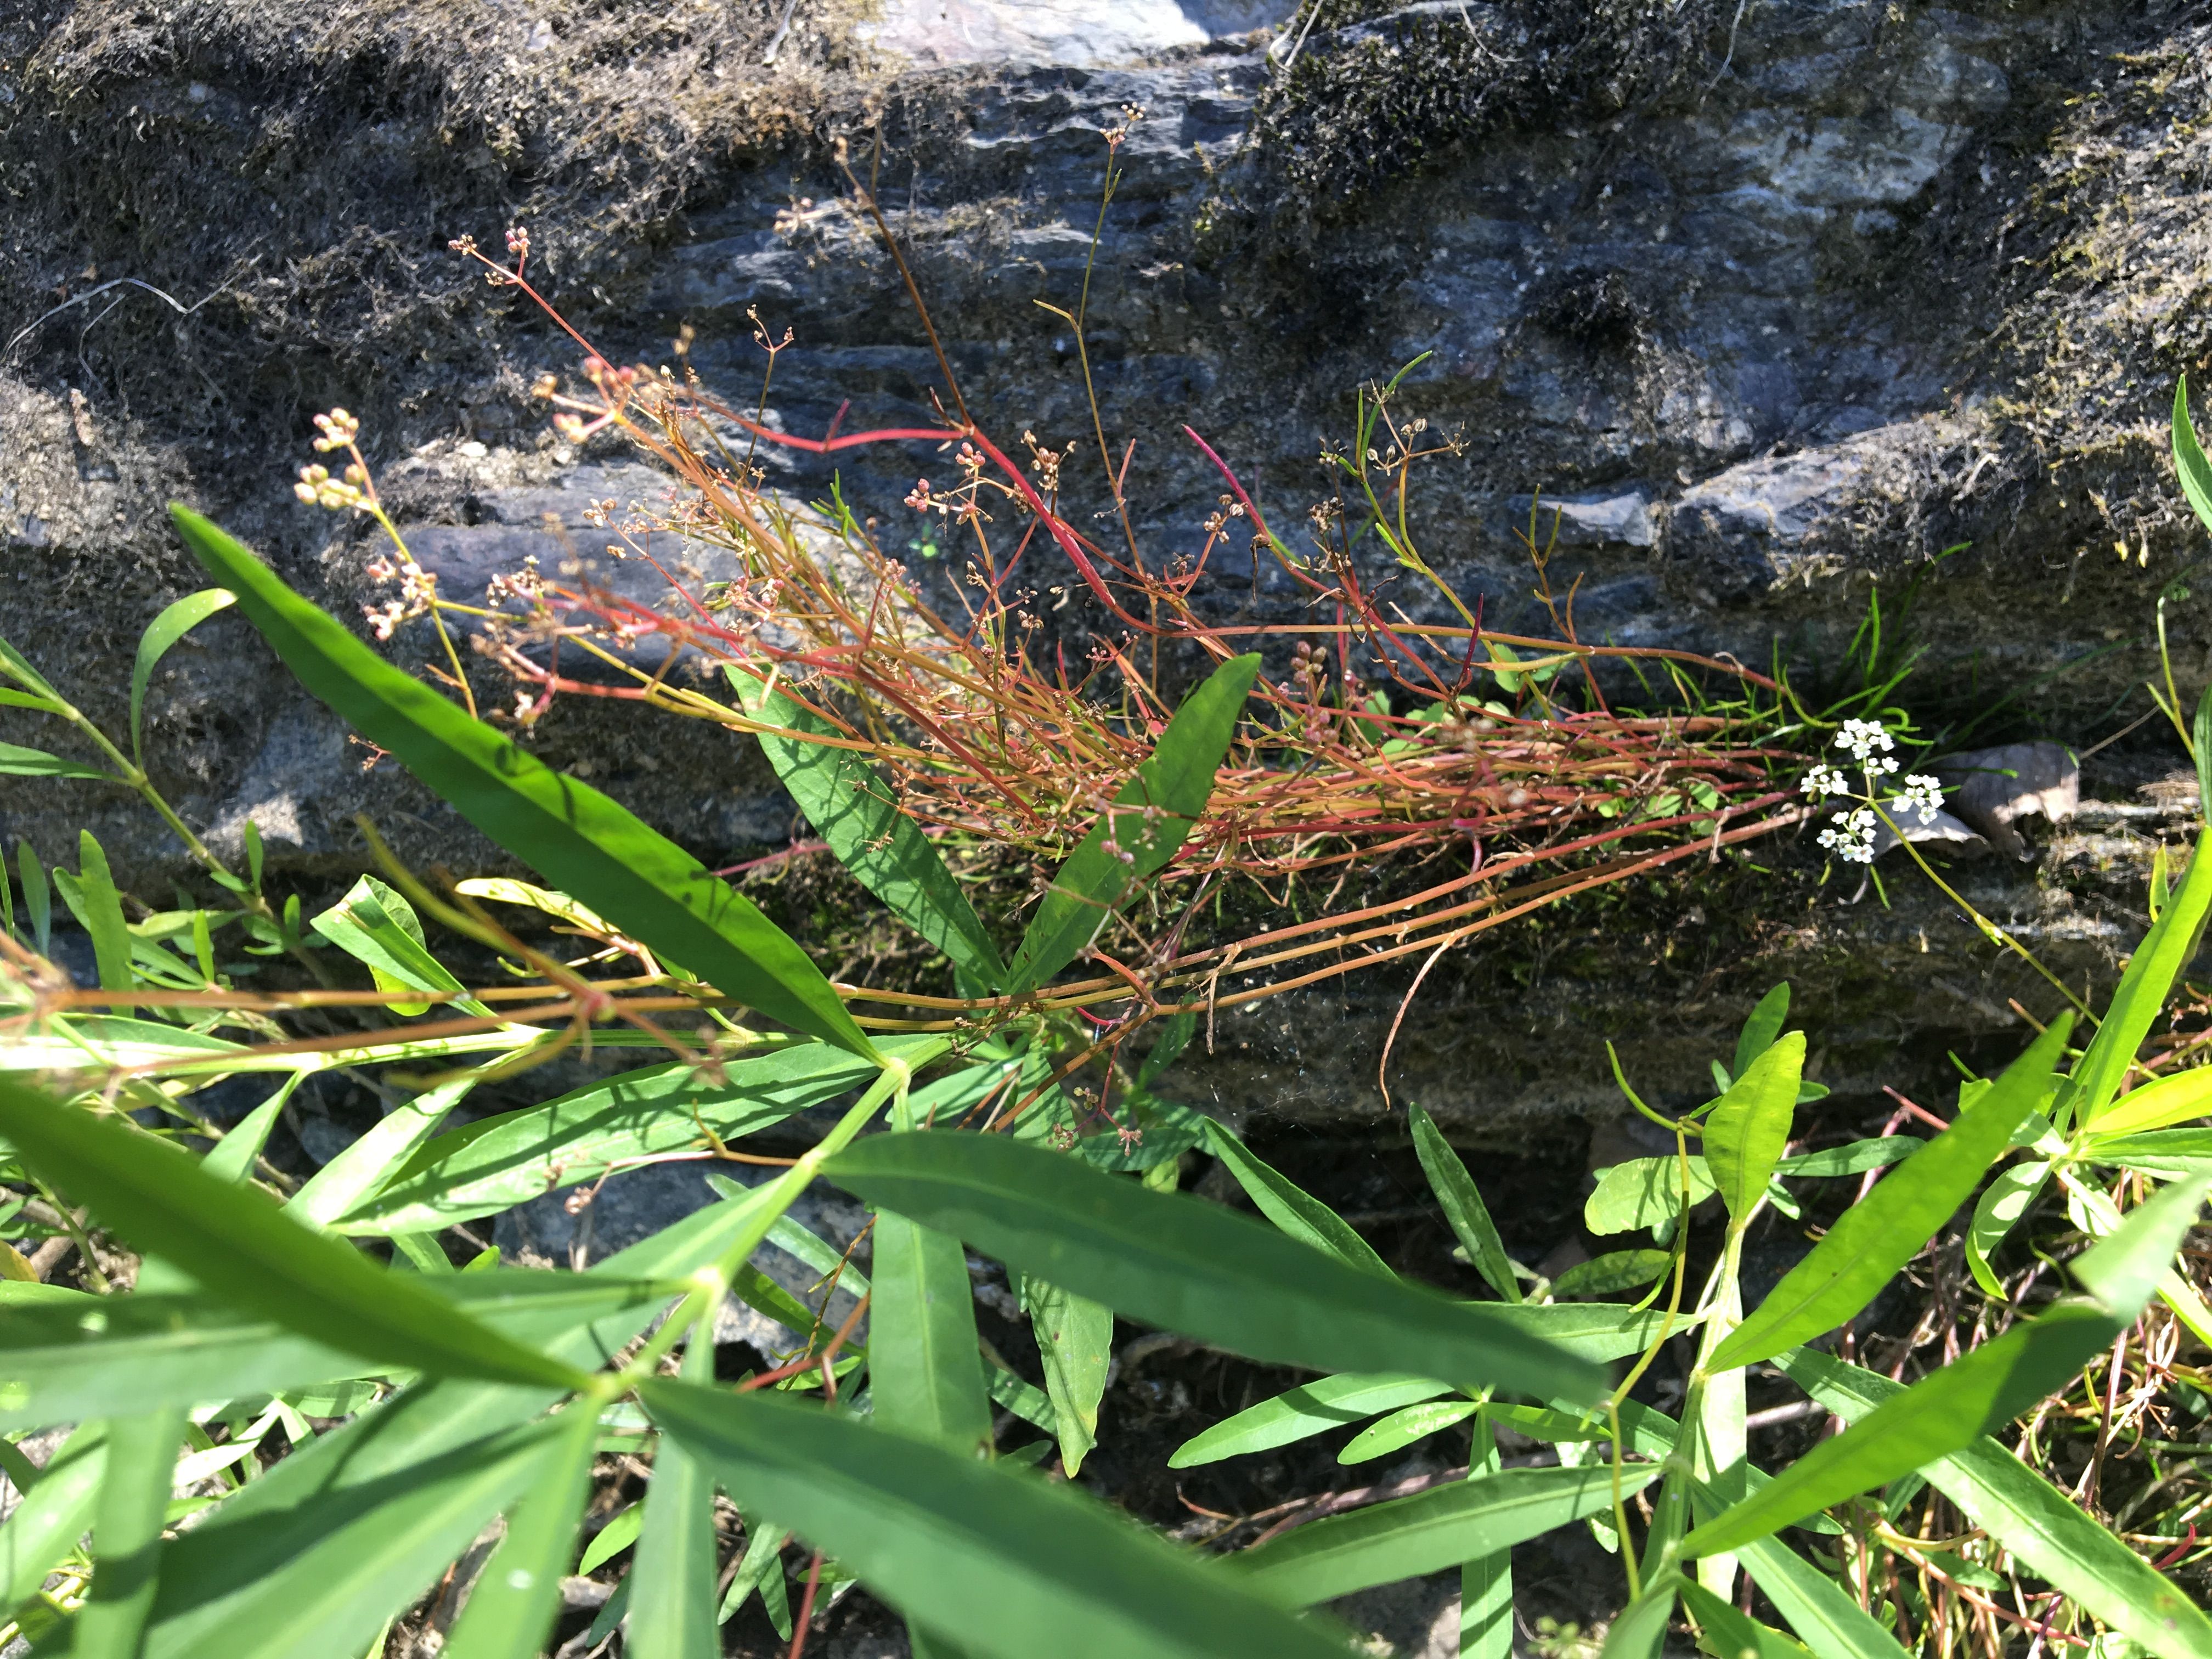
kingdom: Plantae
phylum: Tracheophyta
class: Magnoliopsida
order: Apiales
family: Apiaceae
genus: Harperella
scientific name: Harperella nodosa
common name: harperella
